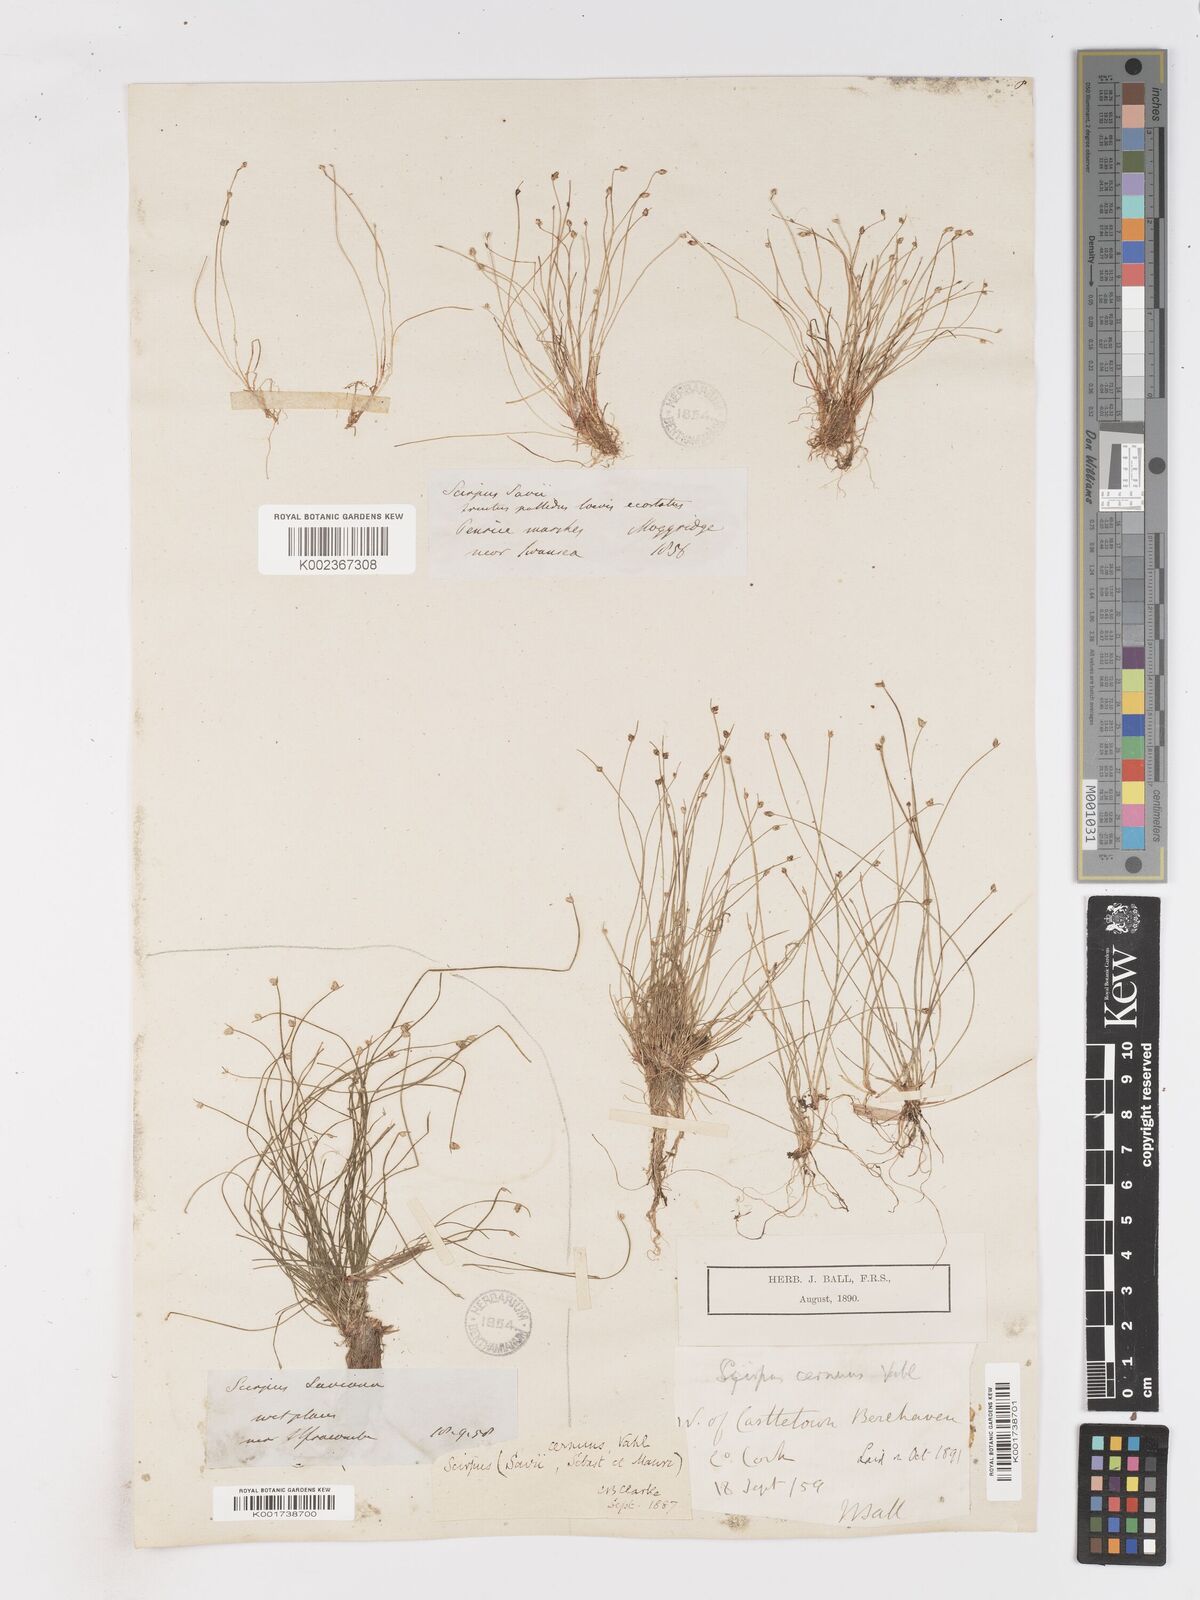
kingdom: Plantae
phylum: Tracheophyta
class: Liliopsida
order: Poales
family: Cyperaceae
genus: Isolepis
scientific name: Isolepis cernua
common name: Slender club-rush
